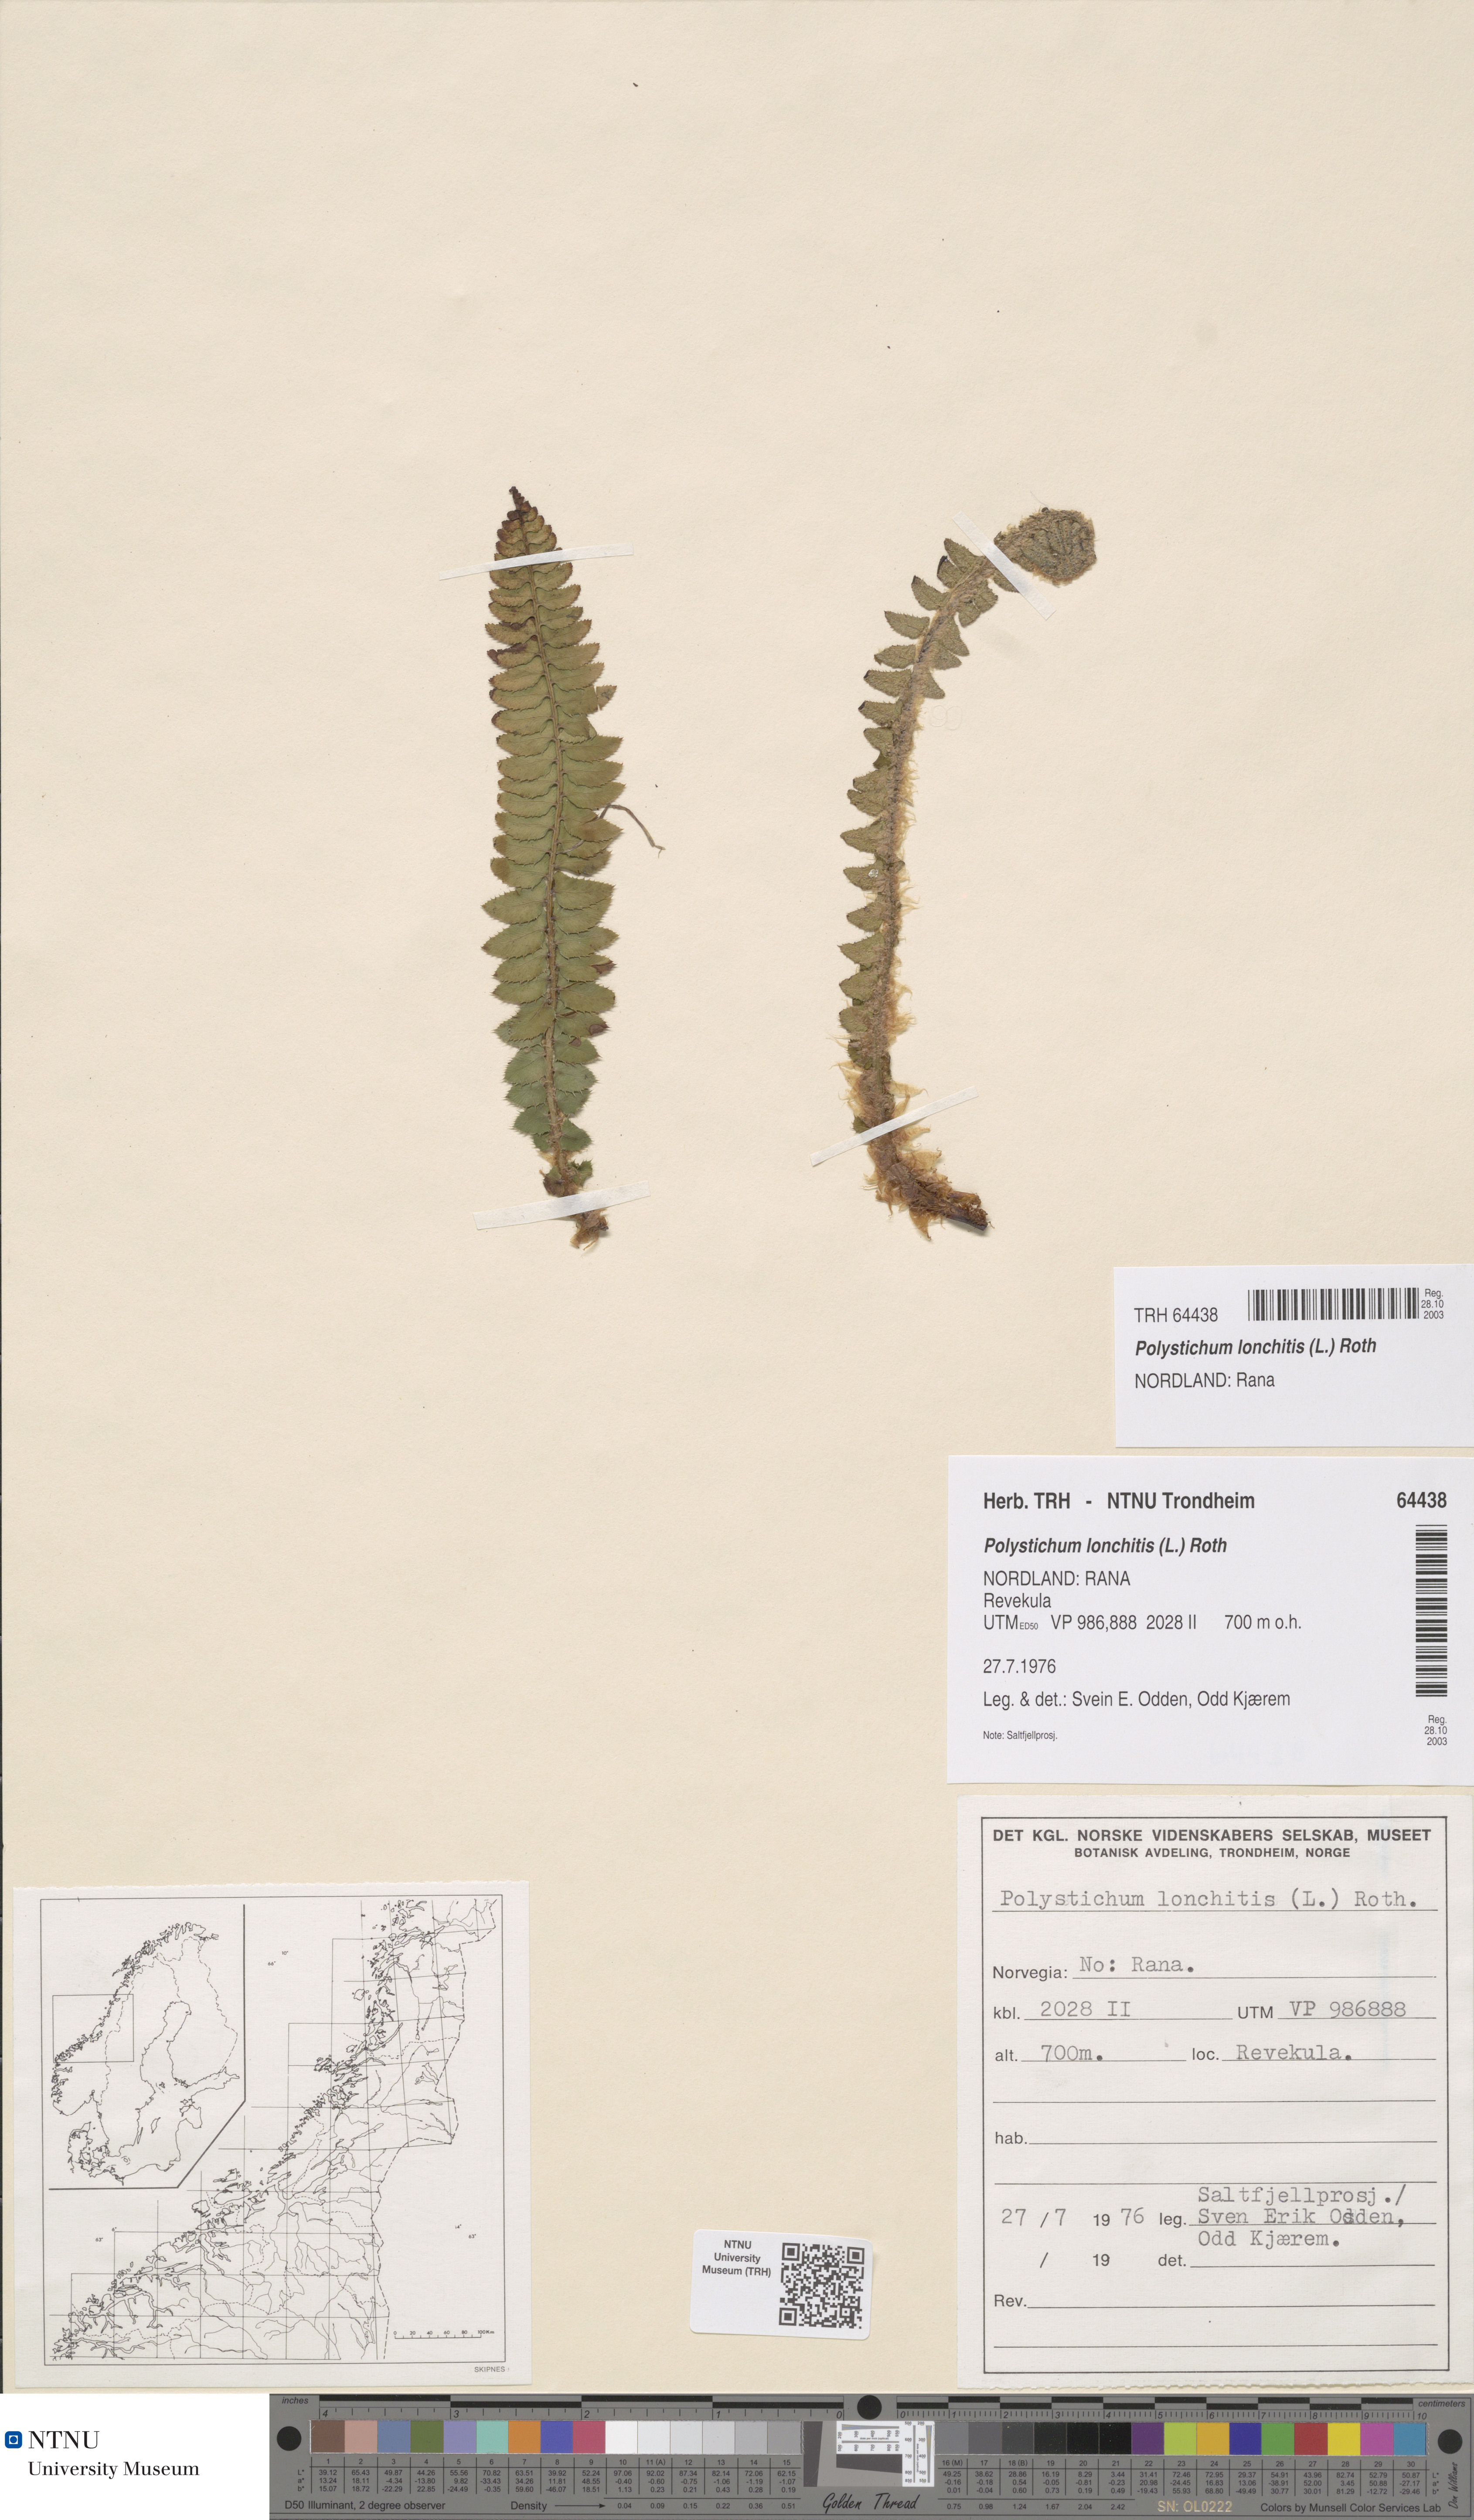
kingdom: Plantae
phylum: Tracheophyta
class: Polypodiopsida
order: Polypodiales
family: Dryopteridaceae
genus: Polystichum
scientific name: Polystichum lonchitis
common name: Holly fern
